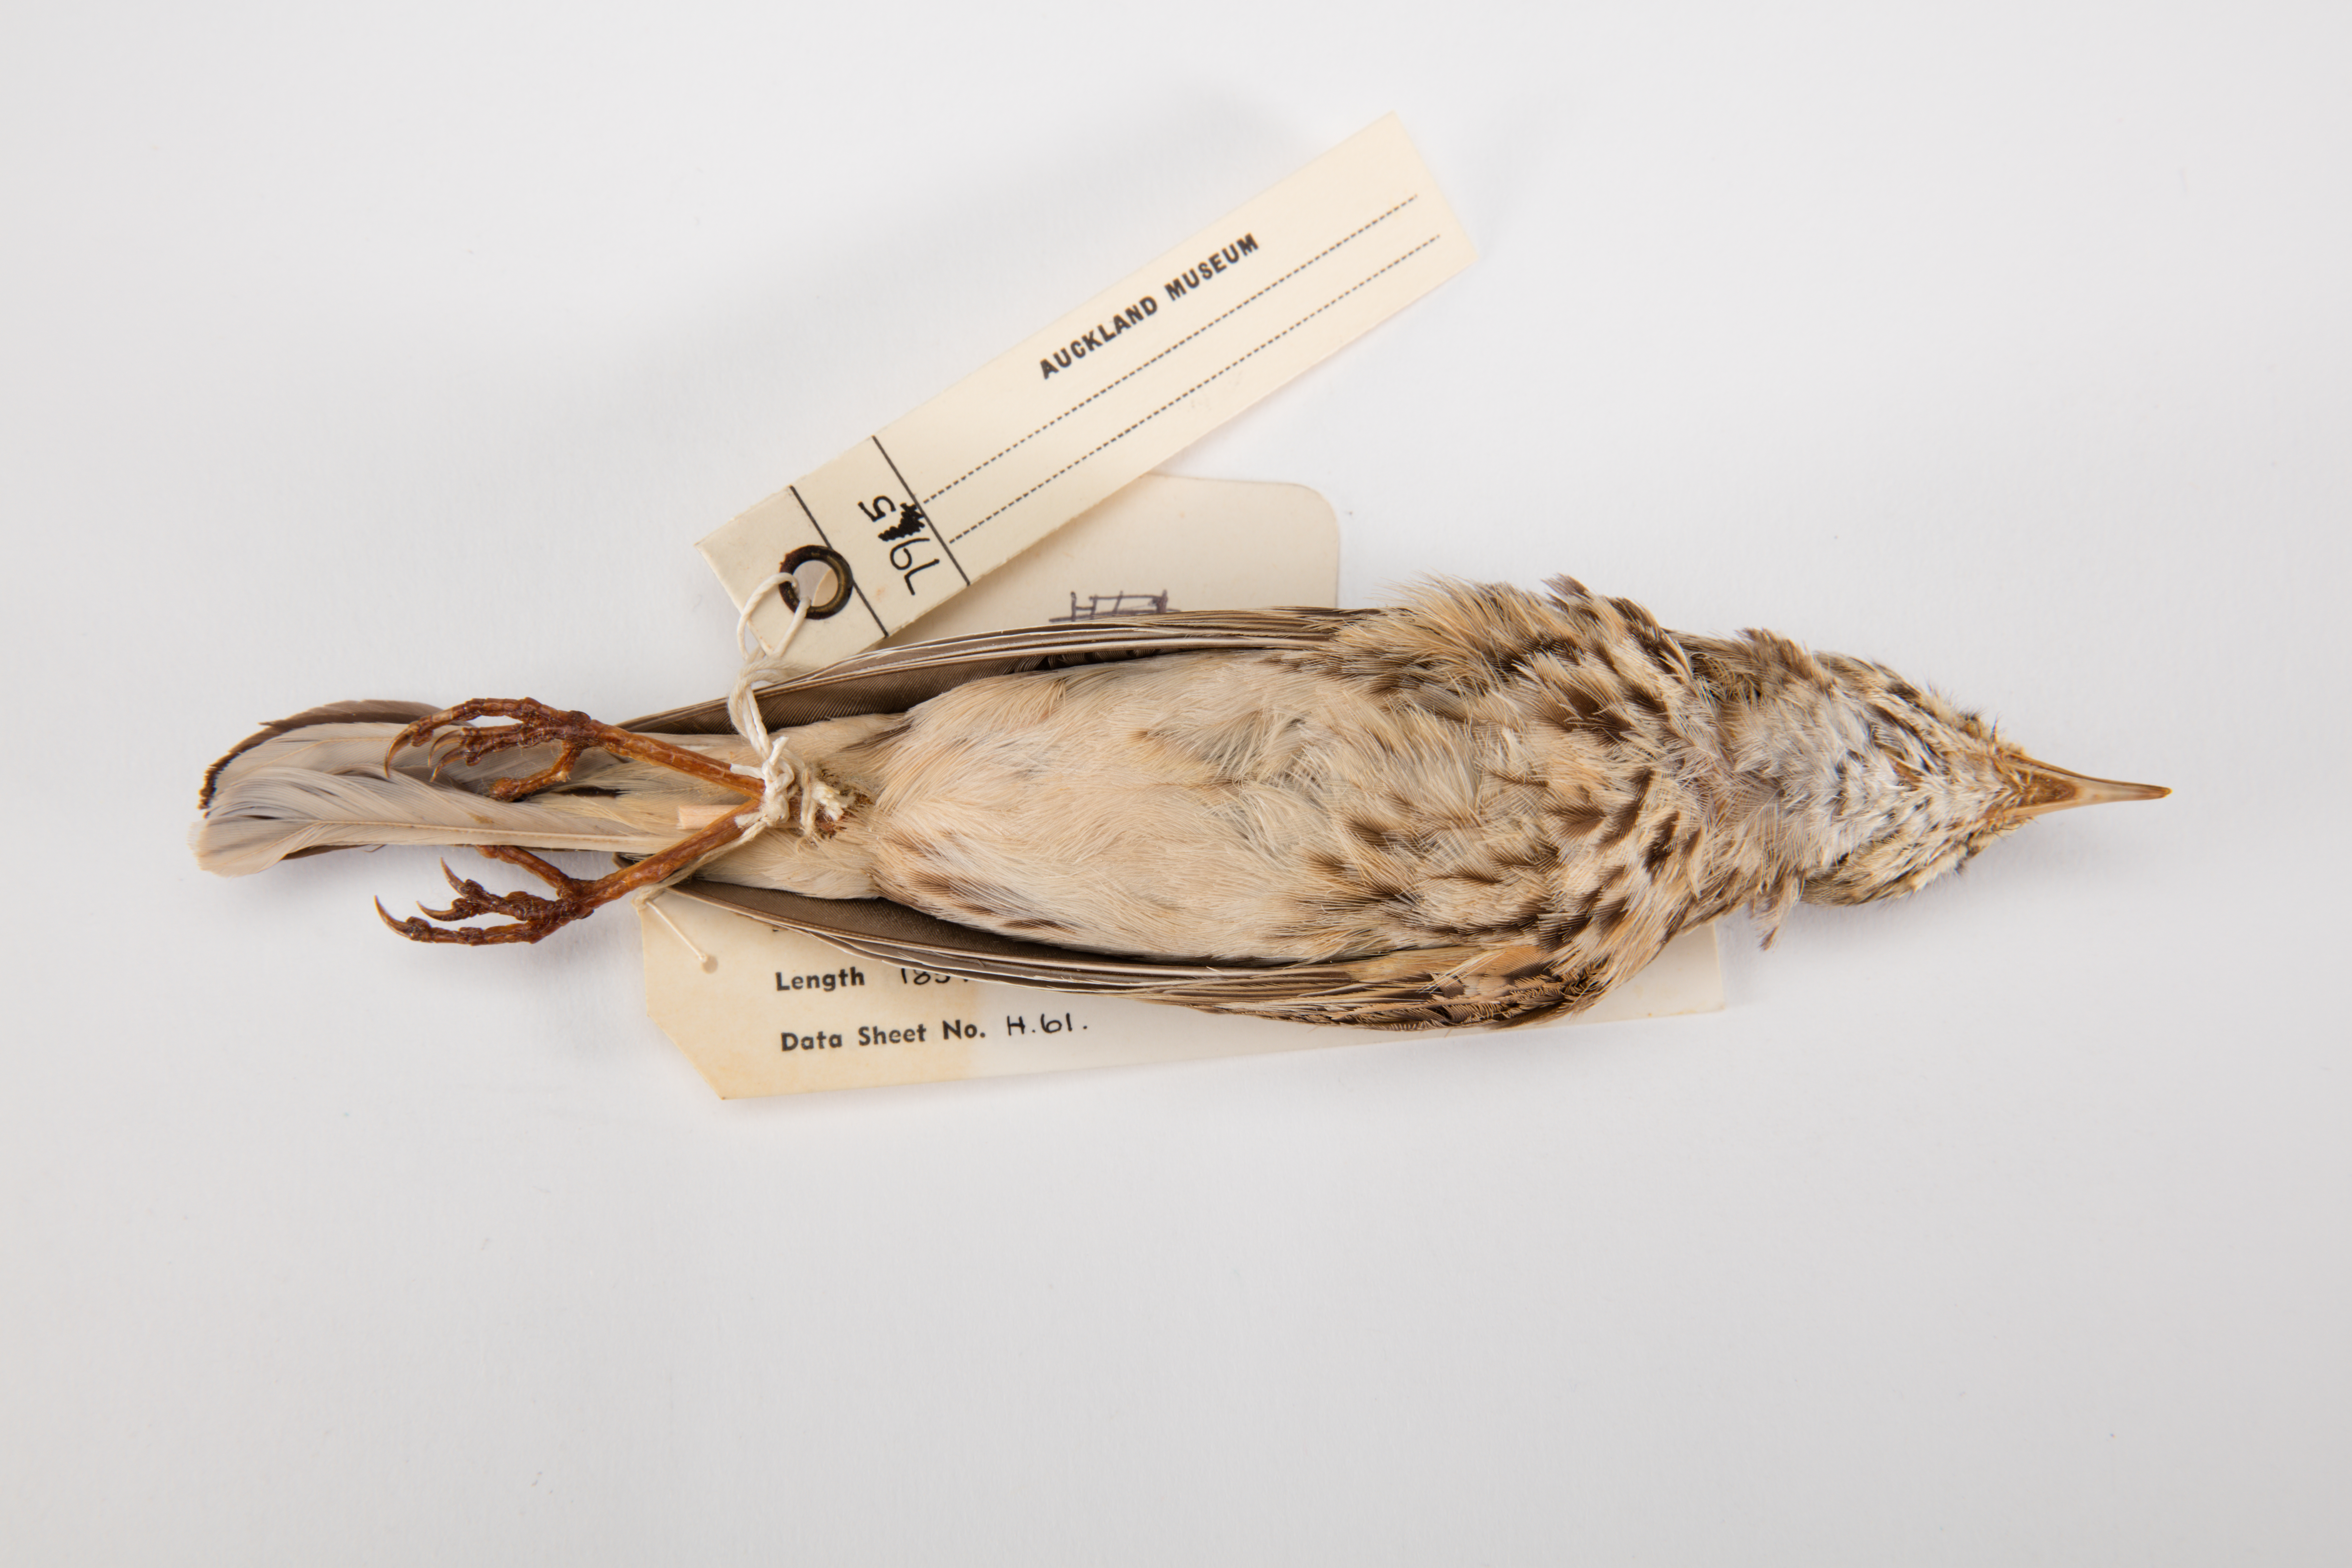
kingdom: Animalia
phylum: Chordata
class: Aves
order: Passeriformes
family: Motacillidae
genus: Anthus
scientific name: Anthus novaeseelandiae
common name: New zealand pipit
